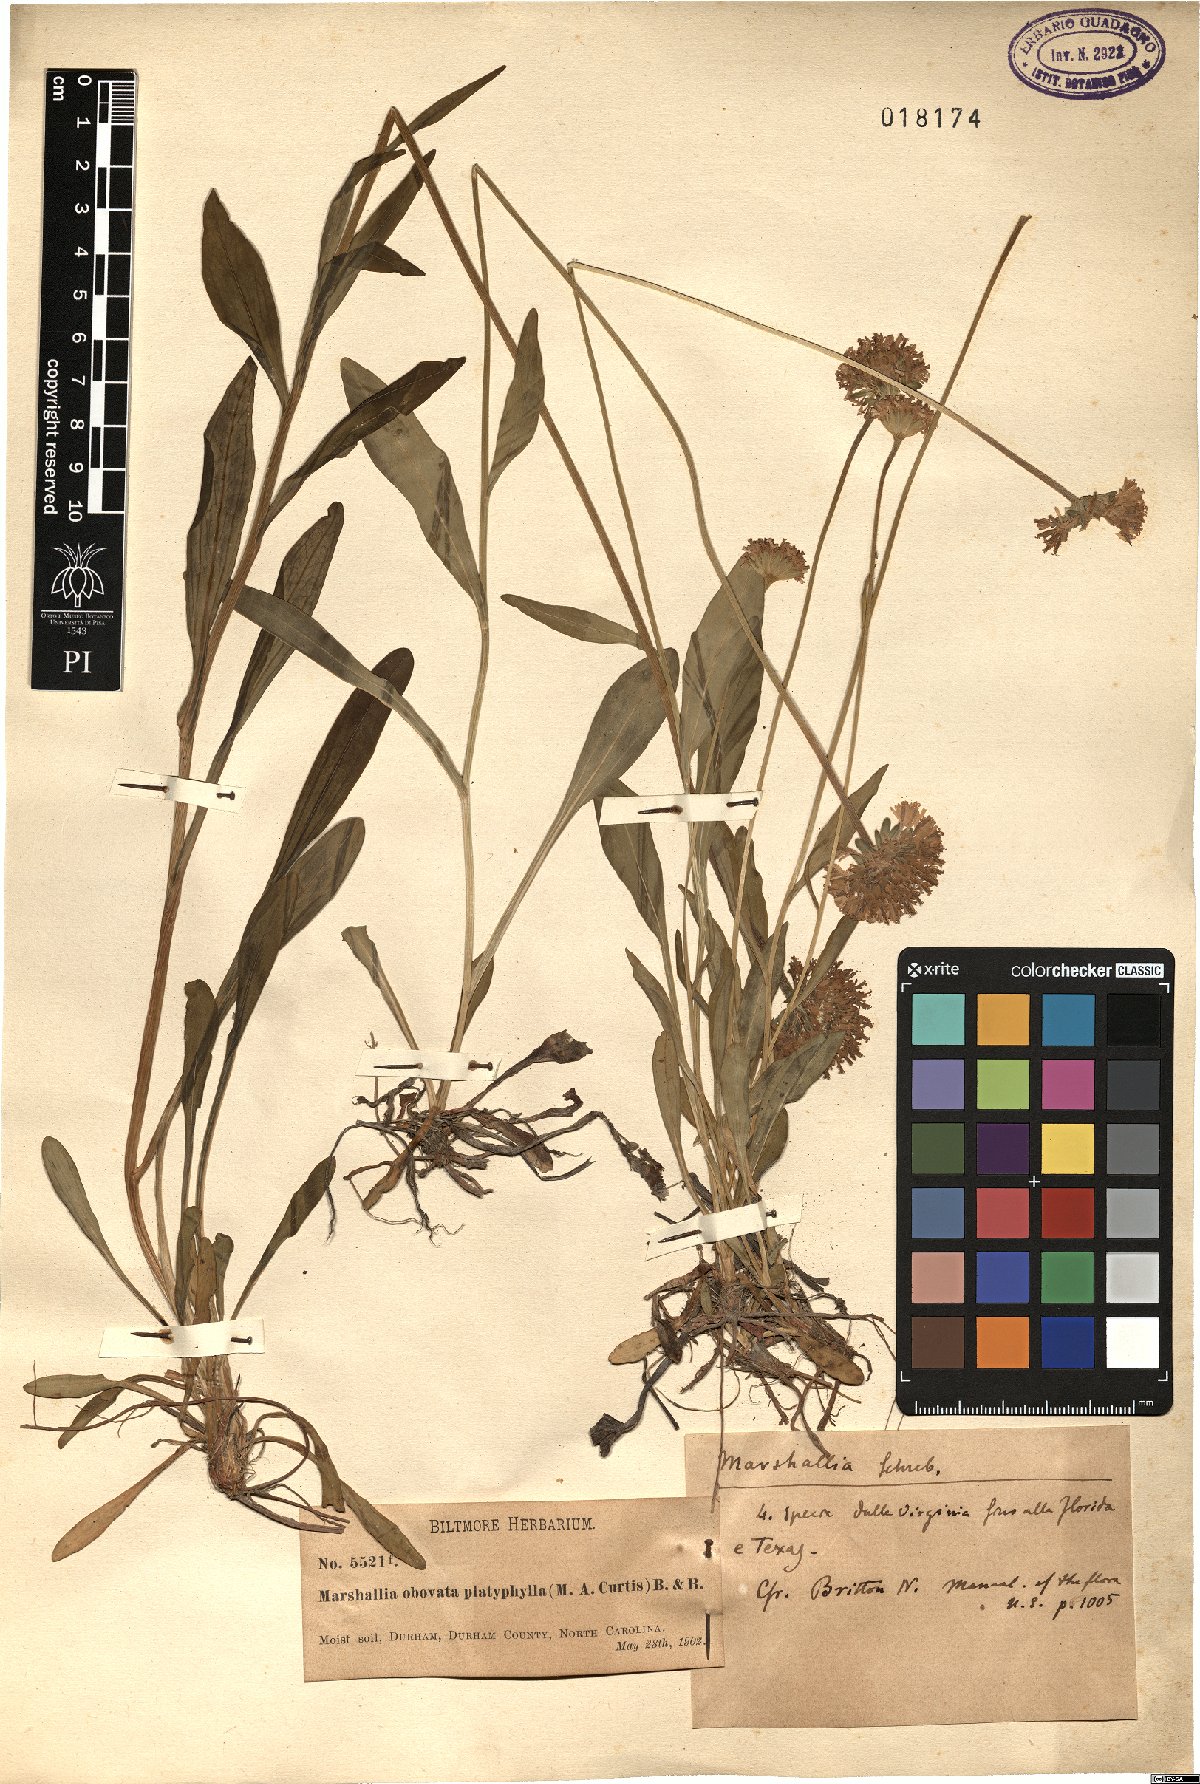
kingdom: Plantae
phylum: Tracheophyta
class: Magnoliopsida
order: Asterales
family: Asteraceae
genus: Marshallia
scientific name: Marshallia obovata
